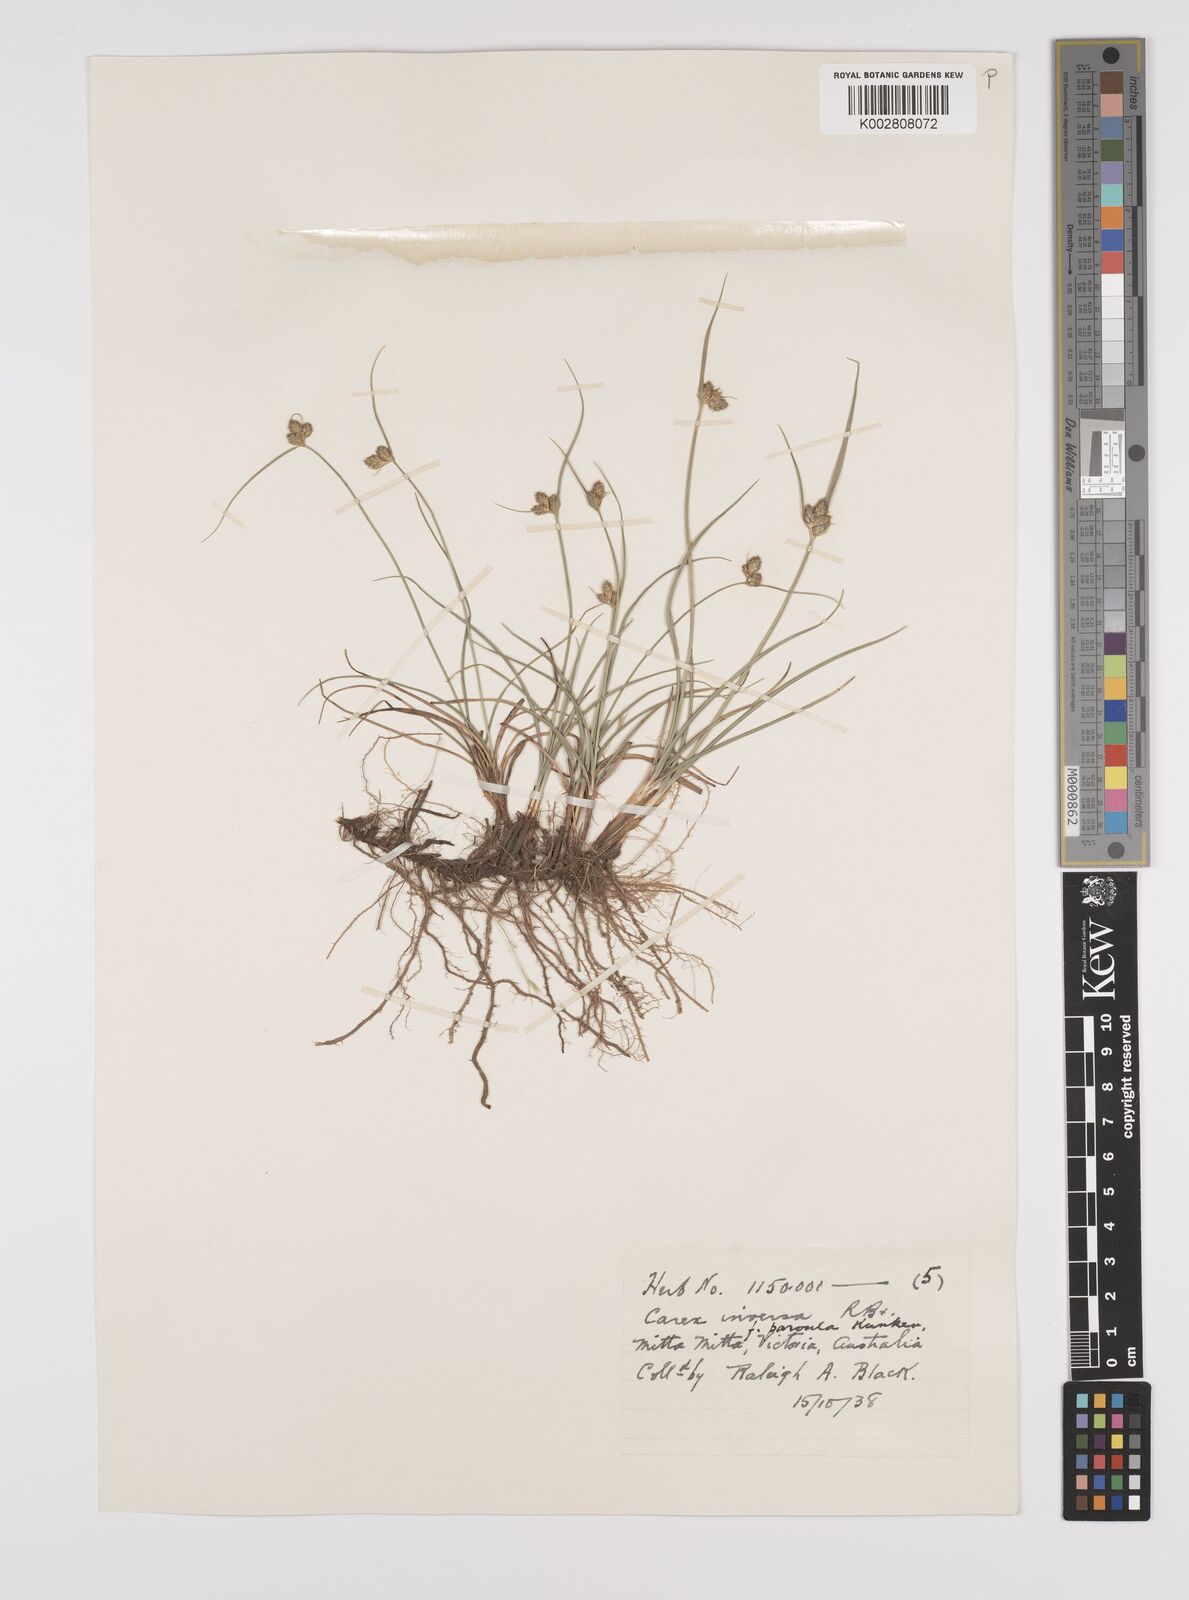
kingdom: Plantae
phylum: Tracheophyta
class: Liliopsida
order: Poales
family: Cyperaceae
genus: Carex
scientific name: Carex inversa
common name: Knob sedge
